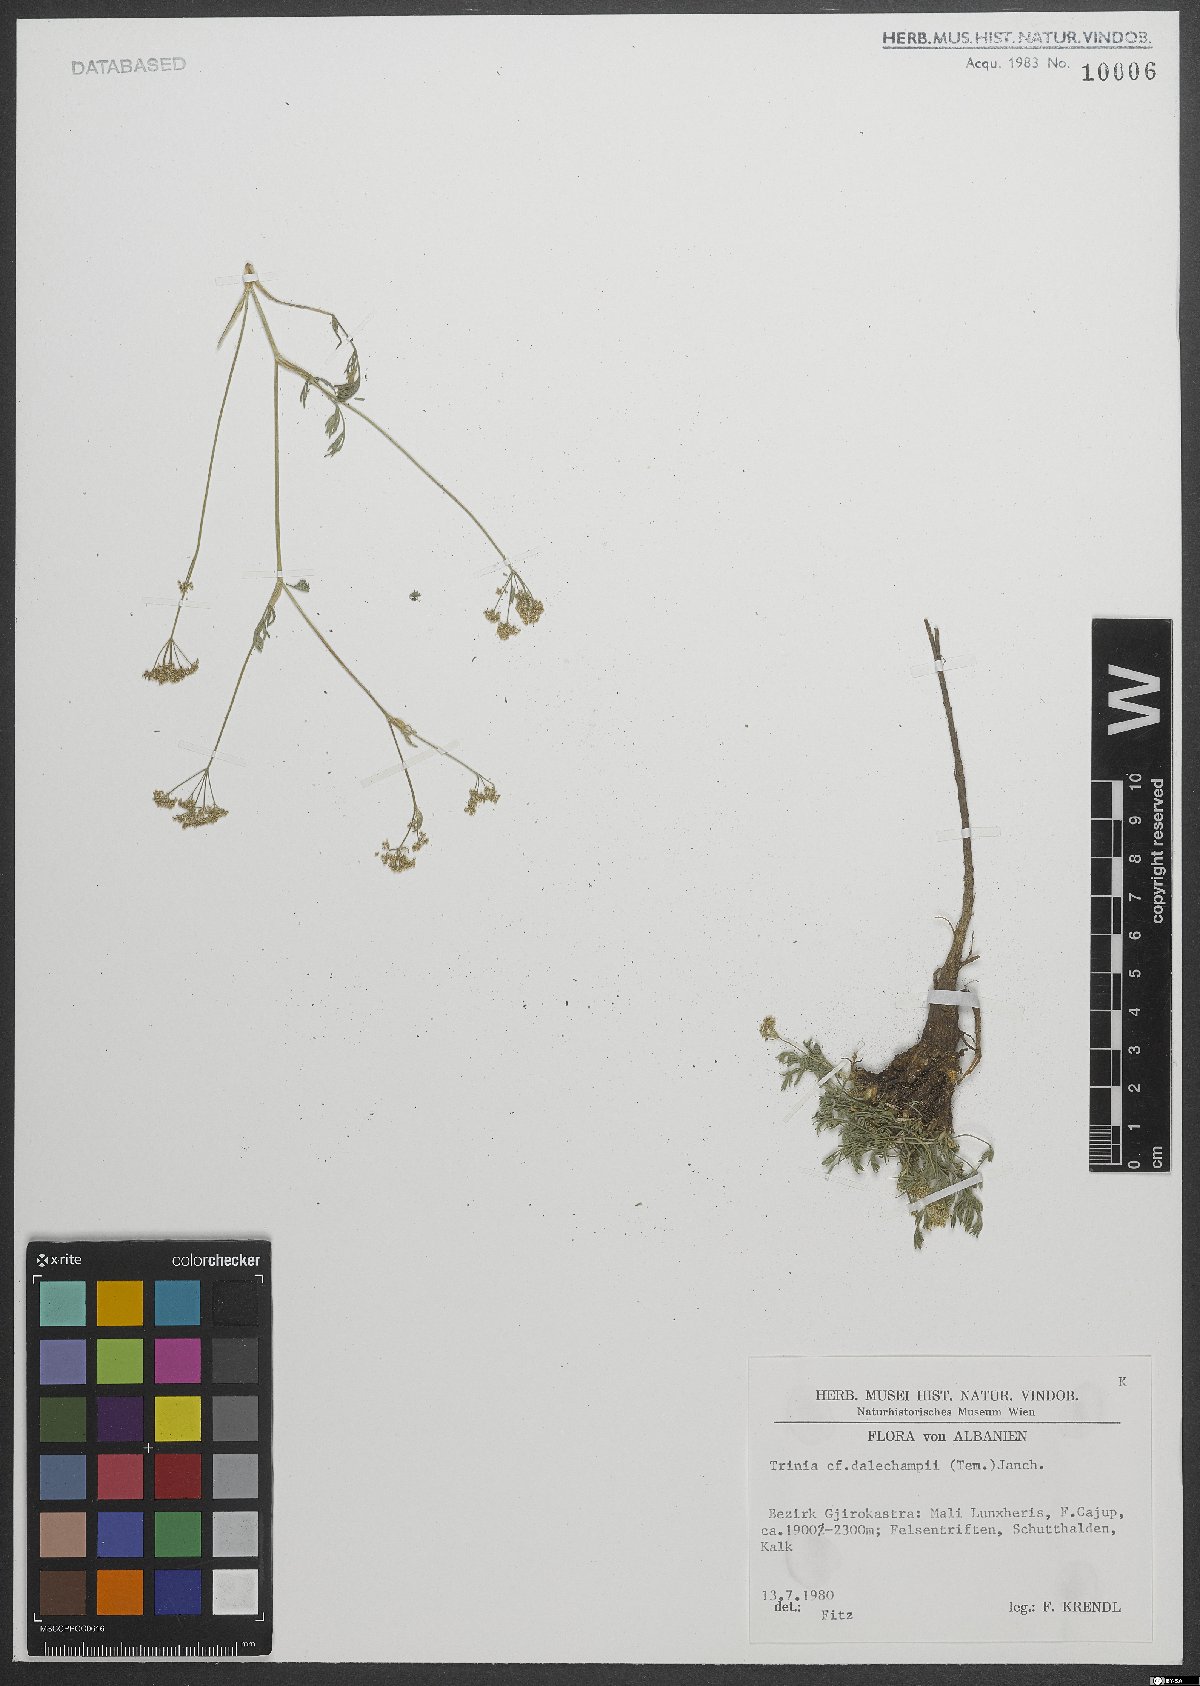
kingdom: Plantae
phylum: Tracheophyta
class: Magnoliopsida
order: Apiales
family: Apiaceae
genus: Trinia
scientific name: Trinia dalechampii
